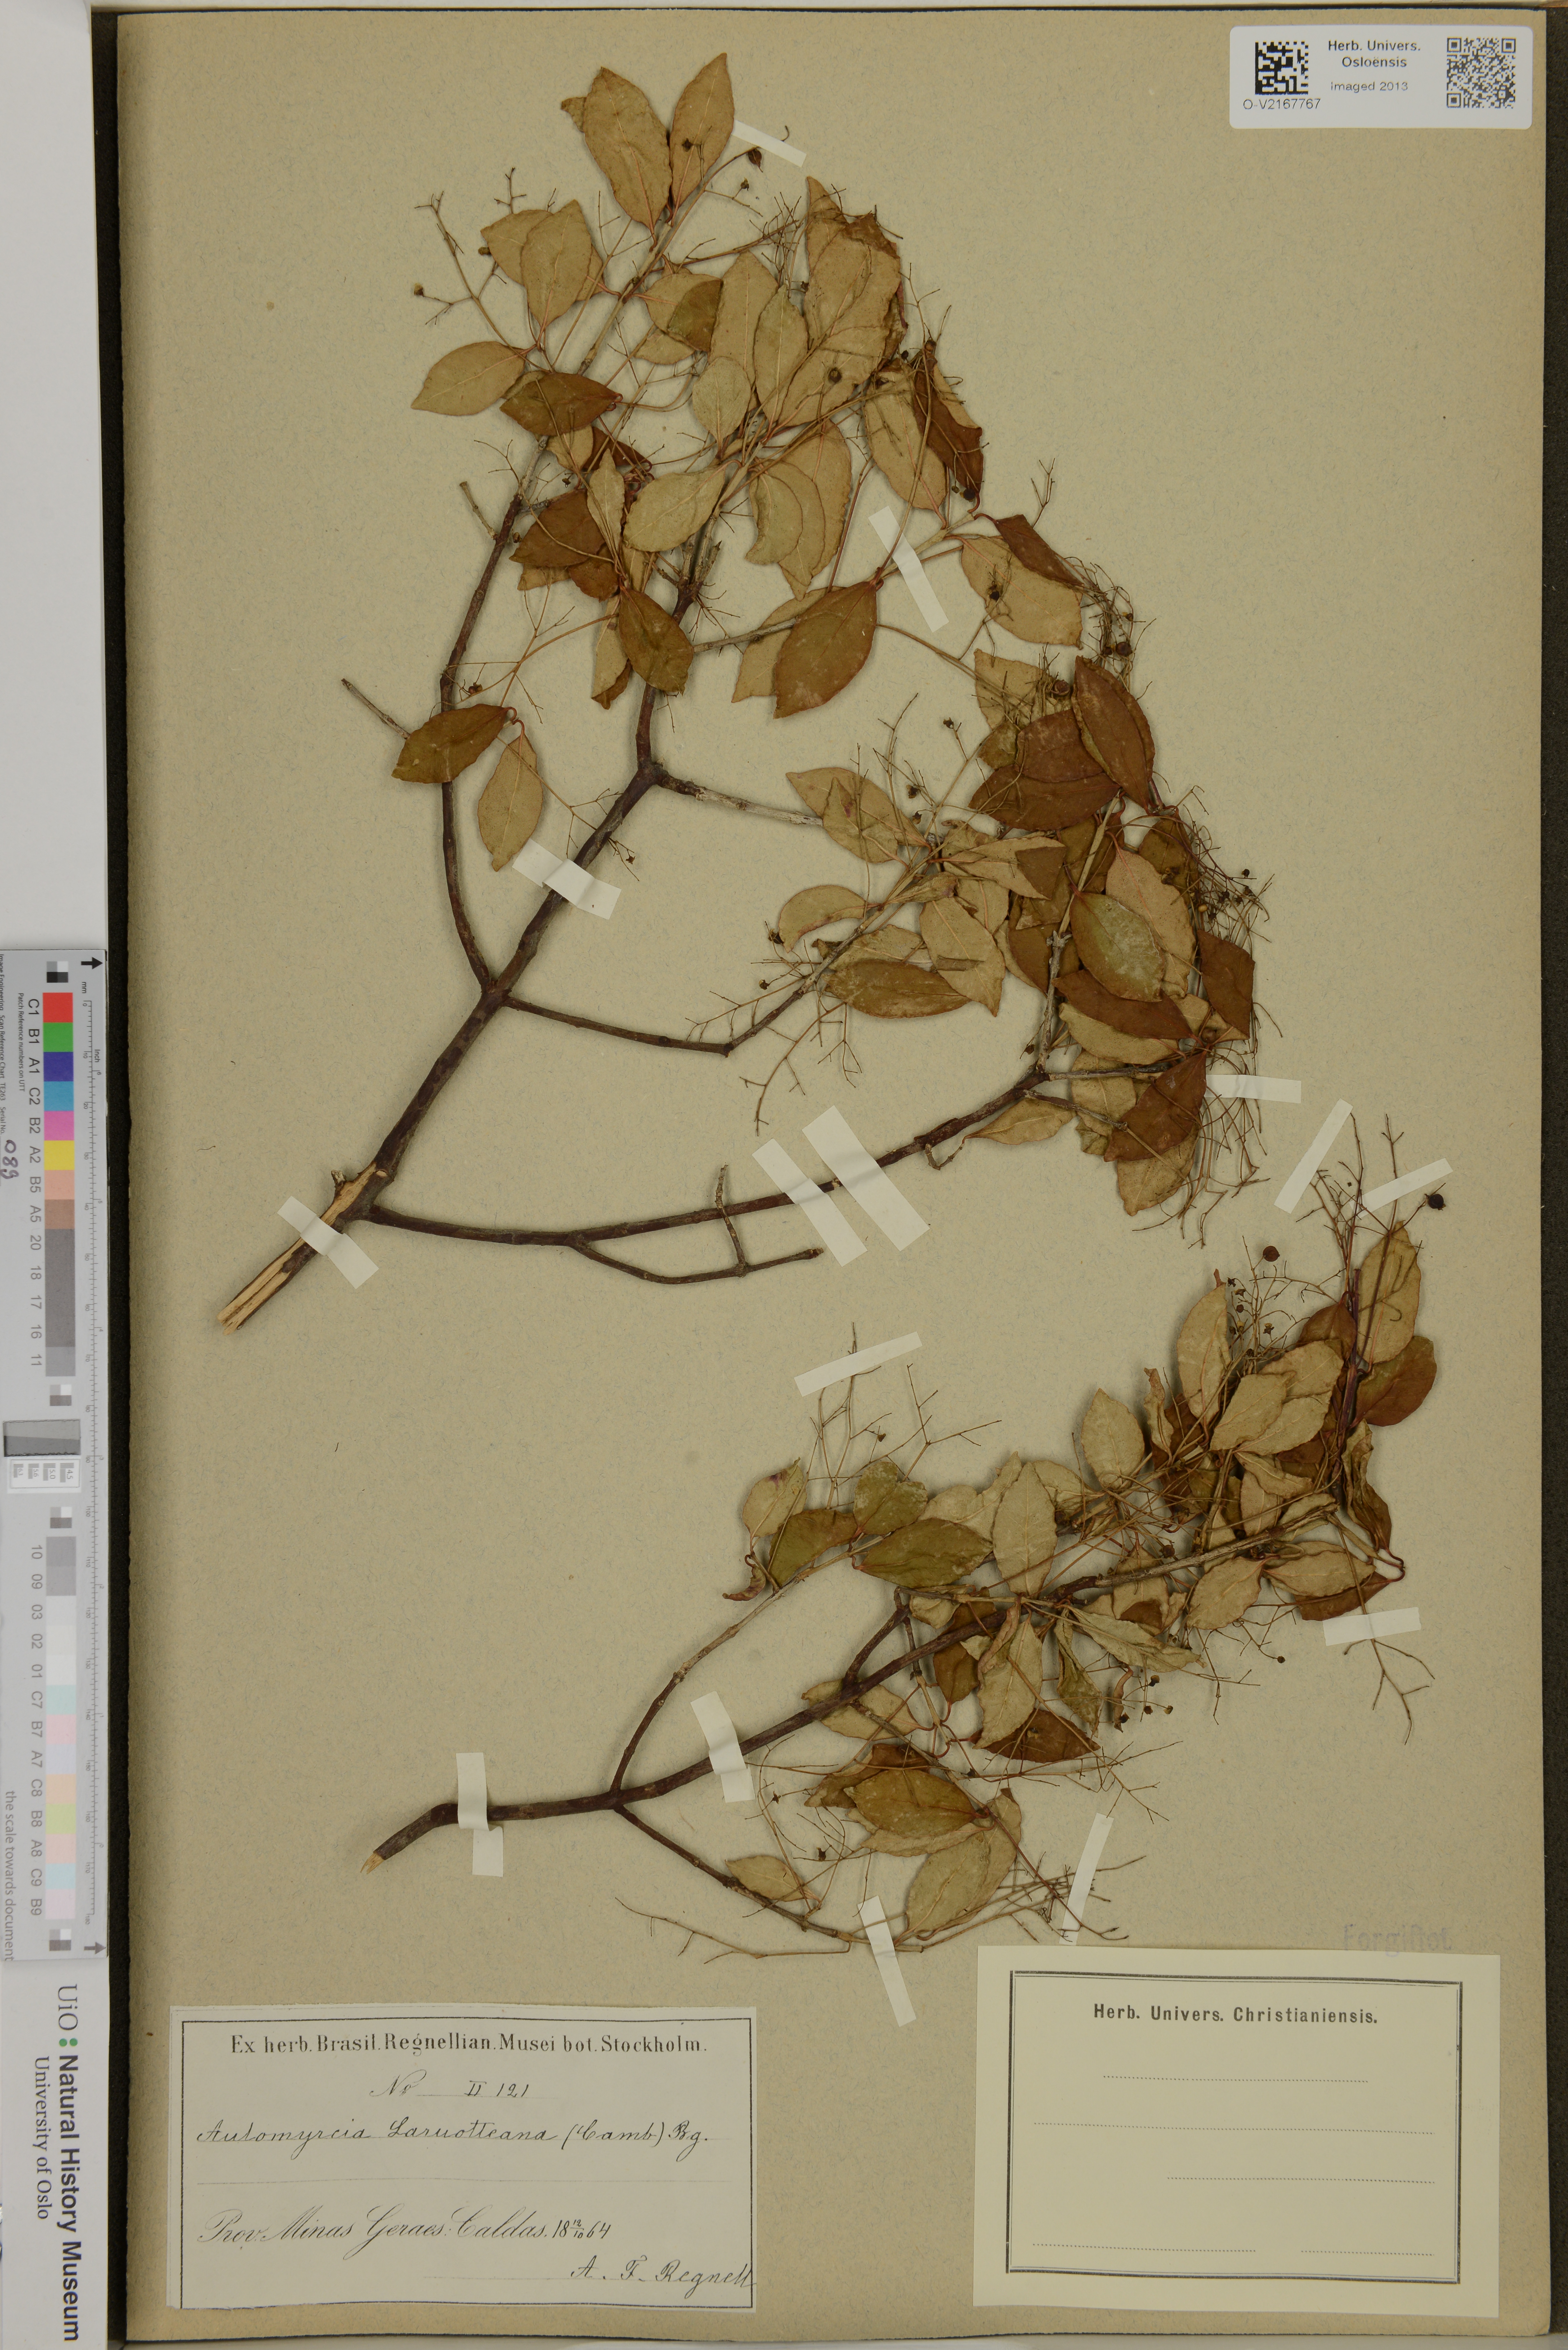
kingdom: Plantae
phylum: Tracheophyta
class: Magnoliopsida
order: Myrtales
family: Myrtaceae
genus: Myrcia
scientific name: Myrcia venulosa
